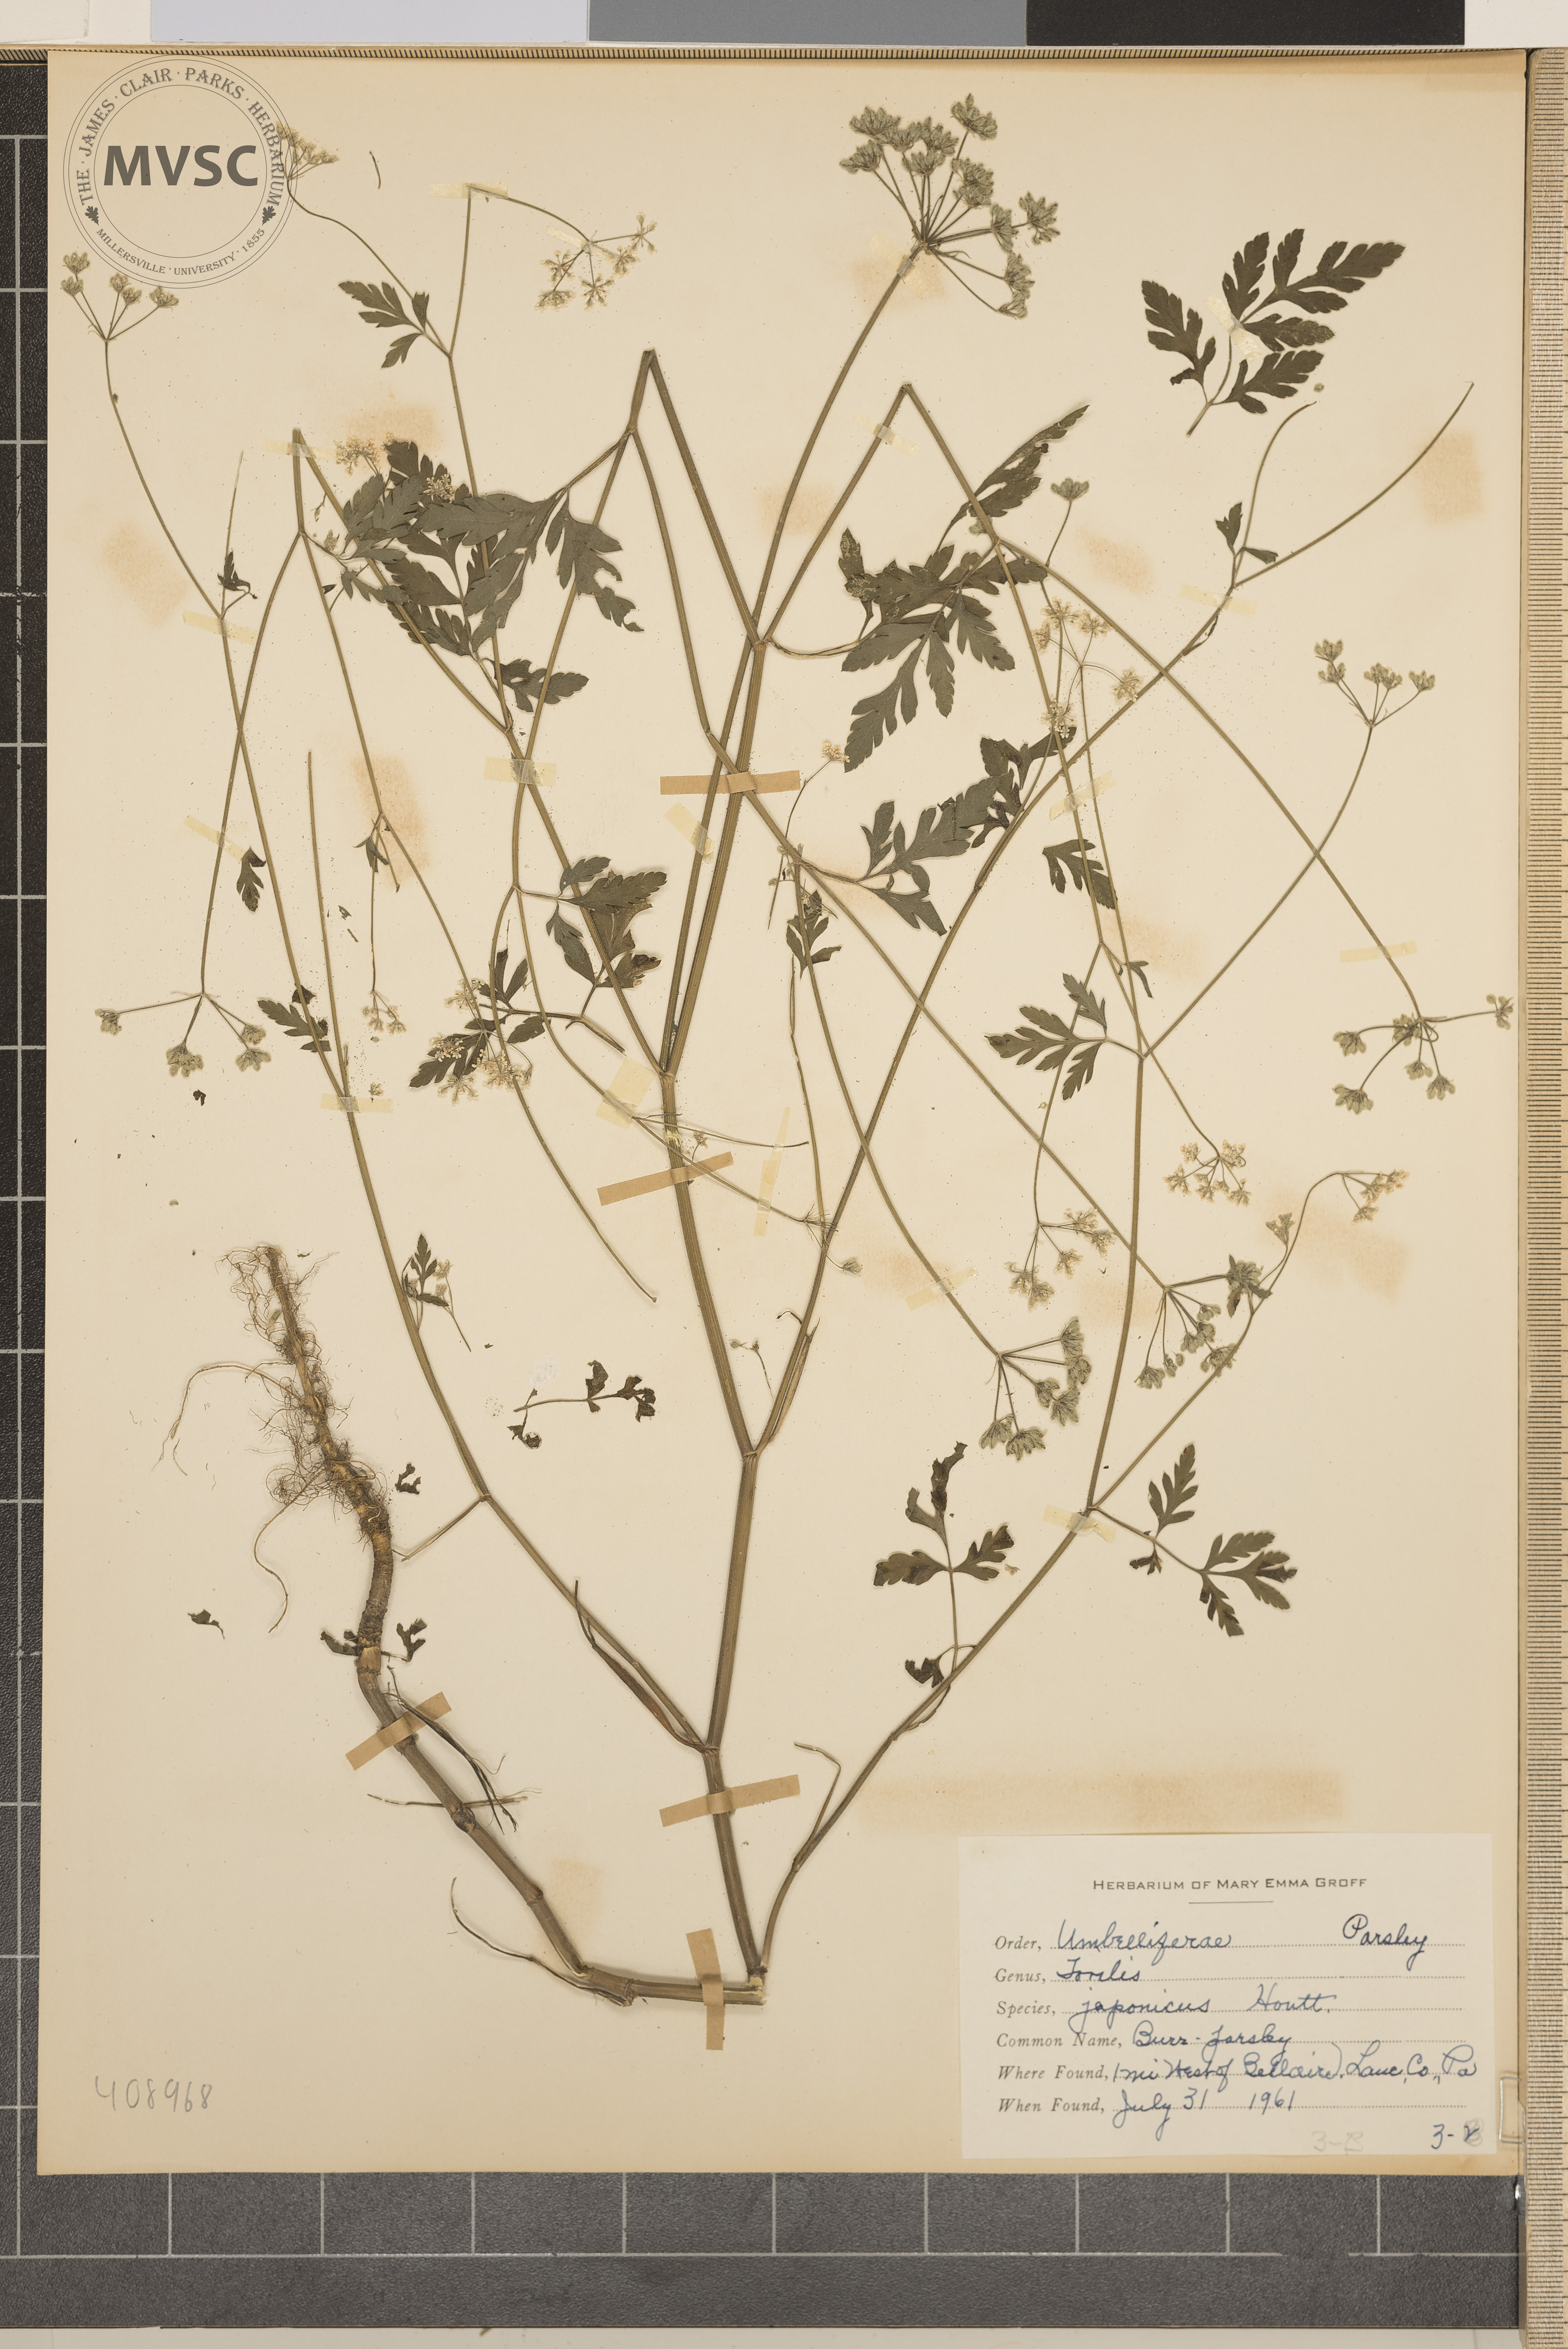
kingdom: Plantae
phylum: Tracheophyta
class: Magnoliopsida
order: Apiales
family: Apiaceae
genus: Torilis
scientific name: Torilis japonica
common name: hedgeparsley
